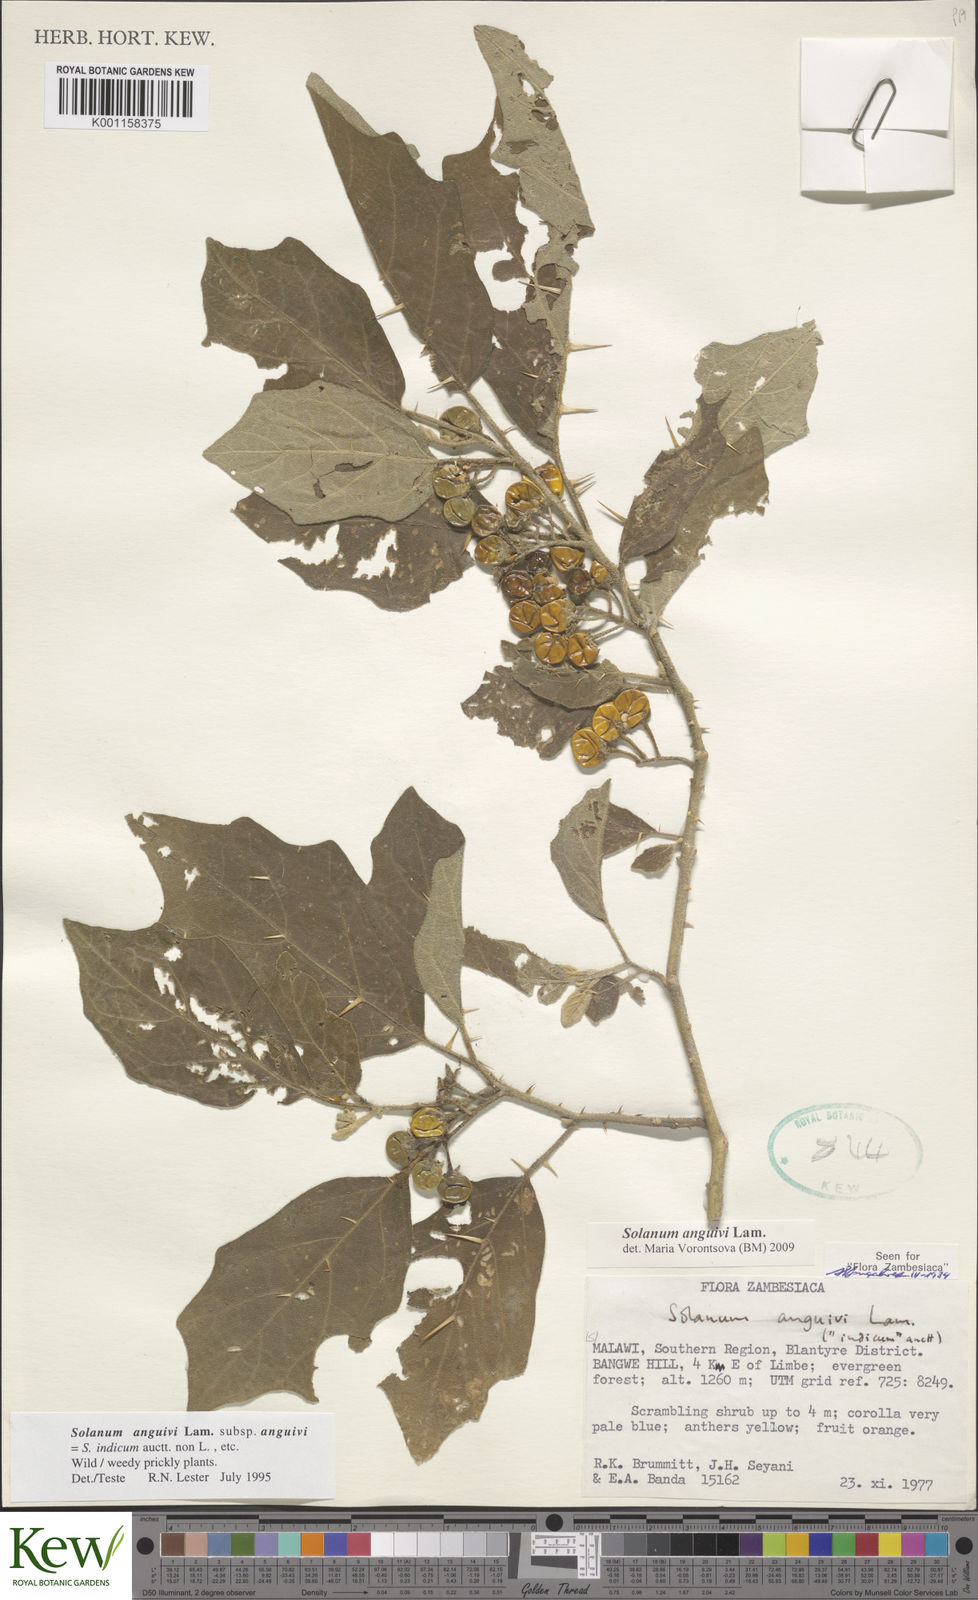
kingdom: Plantae
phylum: Tracheophyta
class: Magnoliopsida
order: Solanales
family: Solanaceae
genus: Solanum
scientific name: Solanum anguivi
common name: Forest bitterberry
